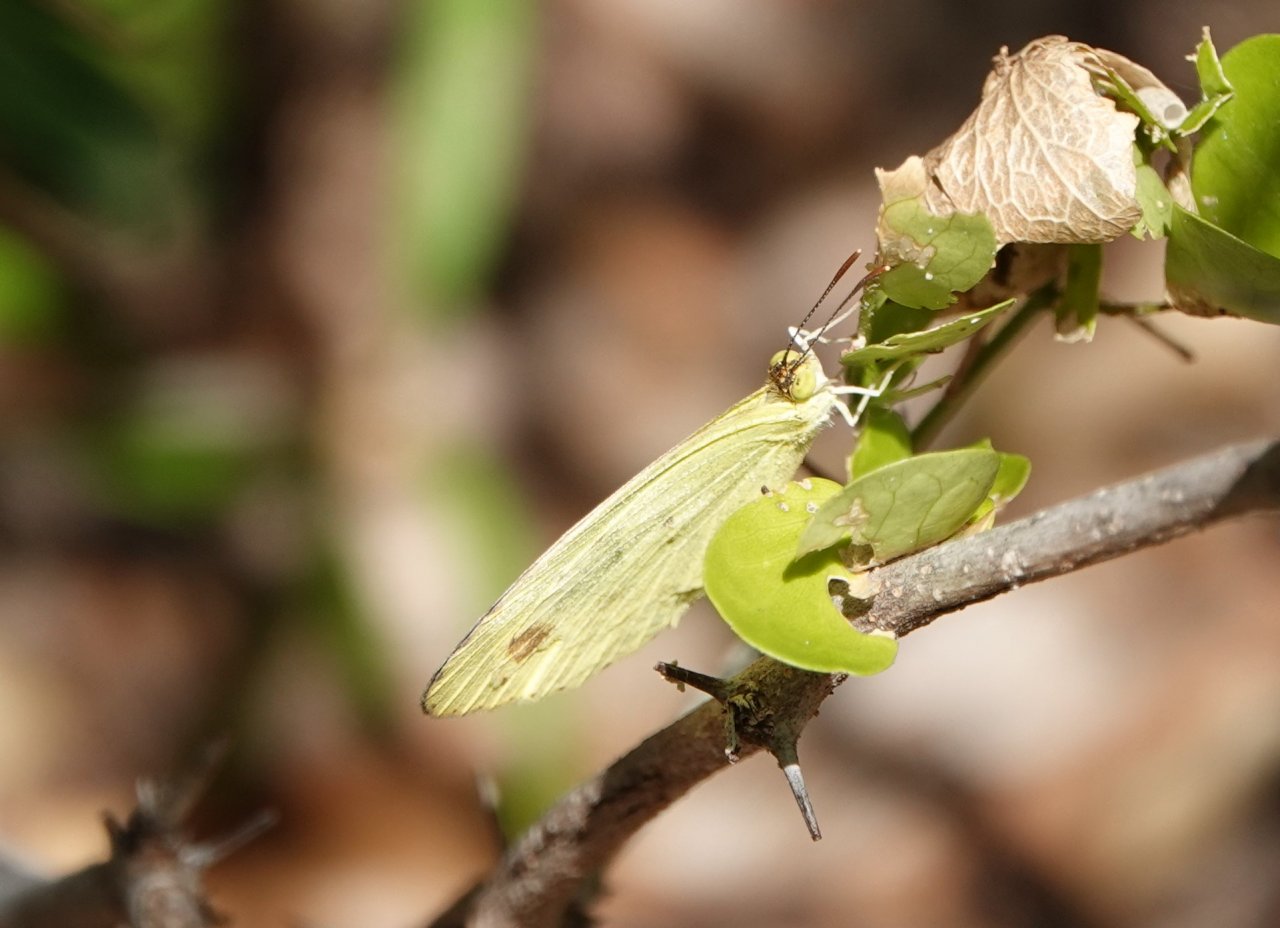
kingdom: Animalia
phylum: Arthropoda
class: Insecta
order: Lepidoptera
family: Pieridae
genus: Pyrisitia
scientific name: Pyrisitia nise
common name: Mimosa Yellow
